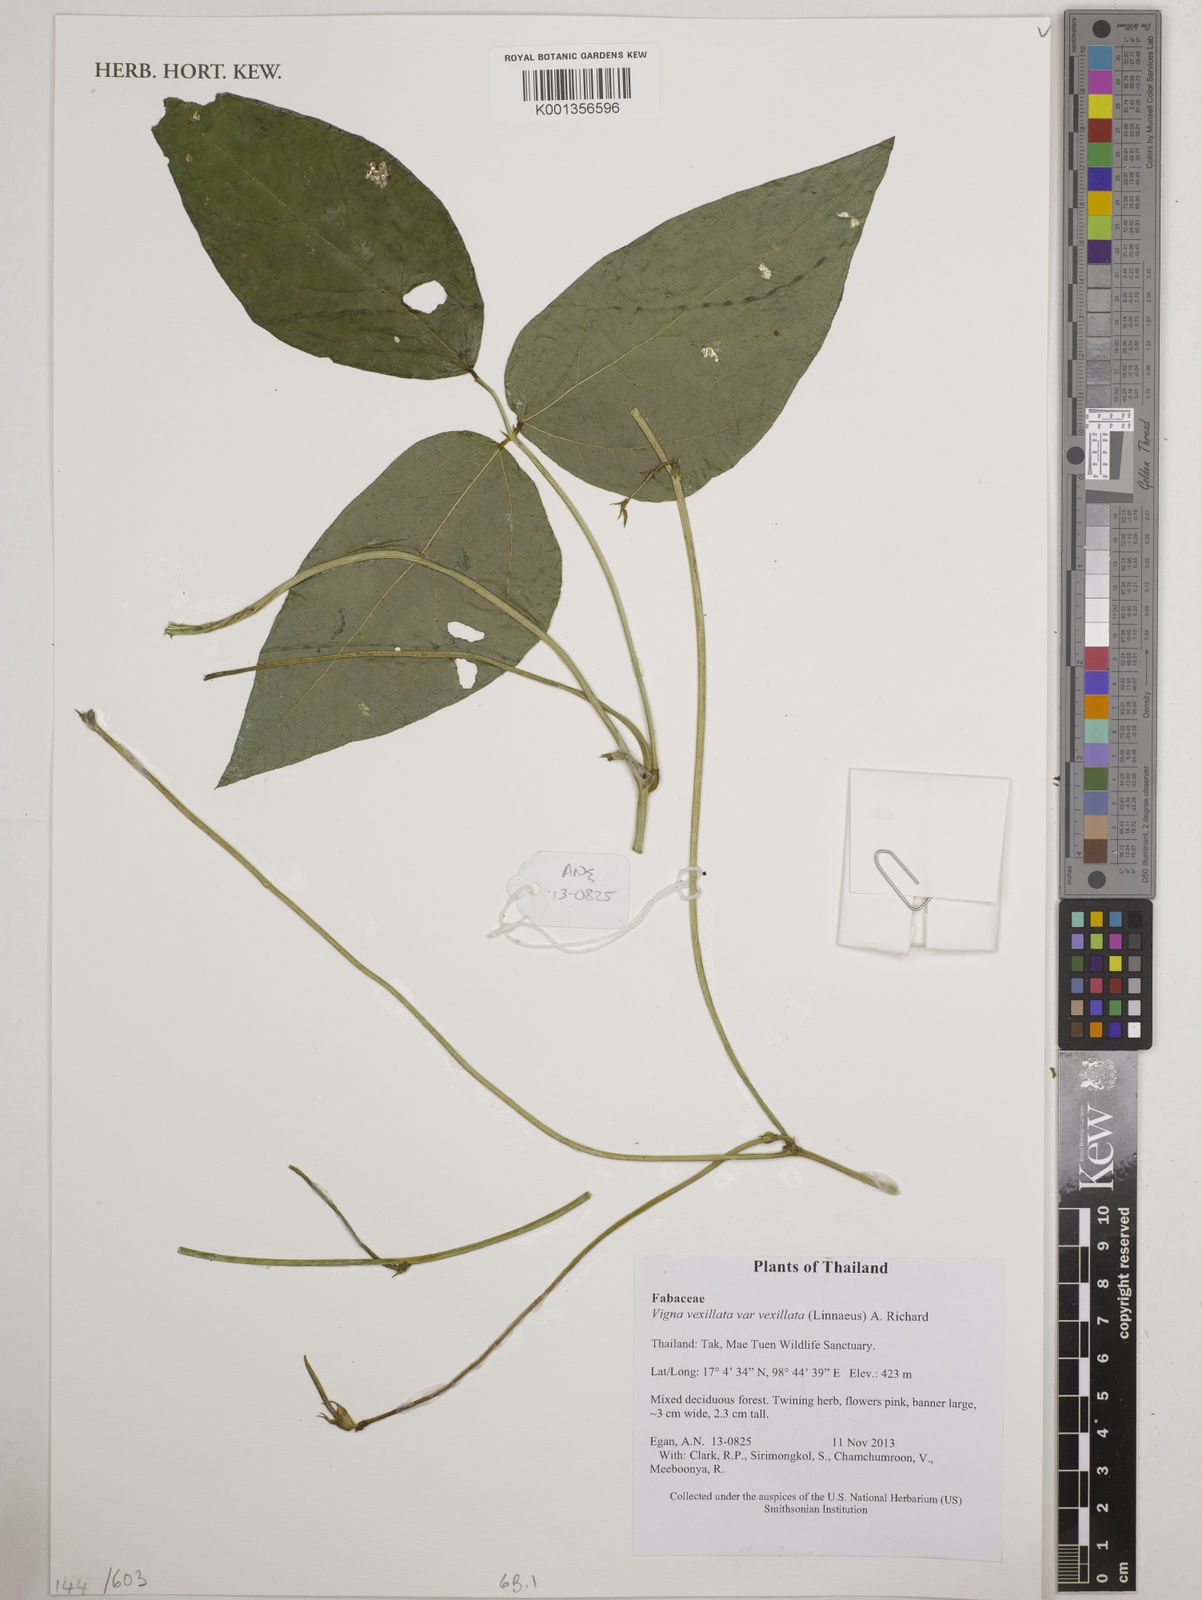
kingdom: Plantae
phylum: Tracheophyta
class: Magnoliopsida
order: Fabales
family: Fabaceae
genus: Vigna
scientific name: Vigna vexillata
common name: Zombi pea
